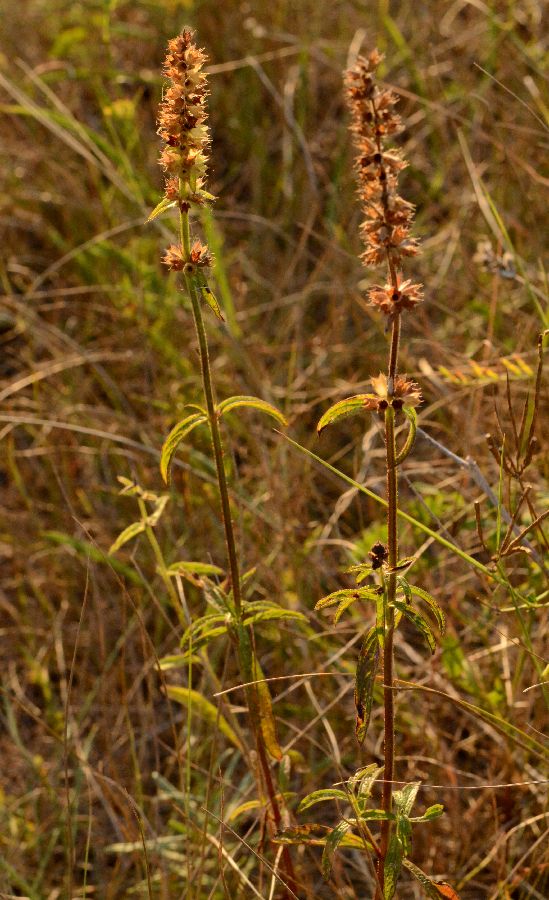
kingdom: Plantae
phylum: Tracheophyta
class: Magnoliopsida
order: Lamiales
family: Lamiaceae
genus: Stachys
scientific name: Stachys recta
